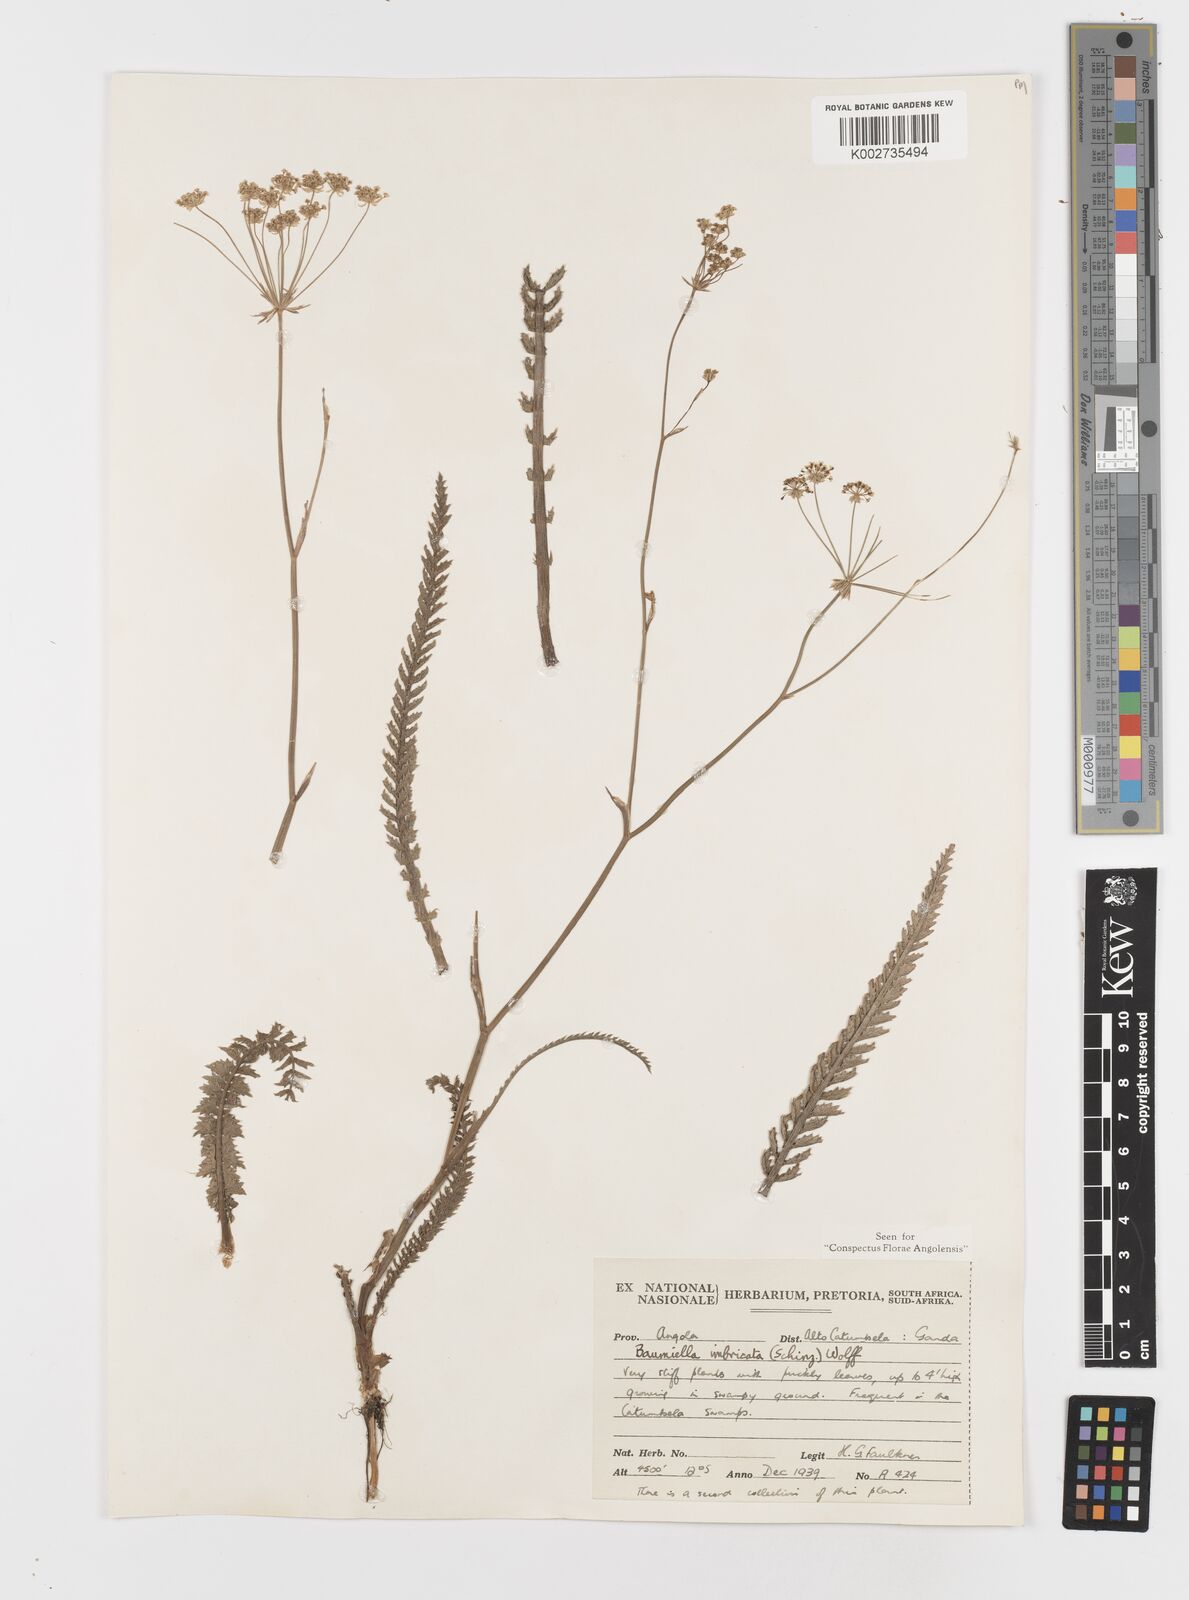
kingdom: Plantae
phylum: Tracheophyta
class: Magnoliopsida
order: Apiales
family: Apiaceae
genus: Berula
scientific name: Berula imbricata
